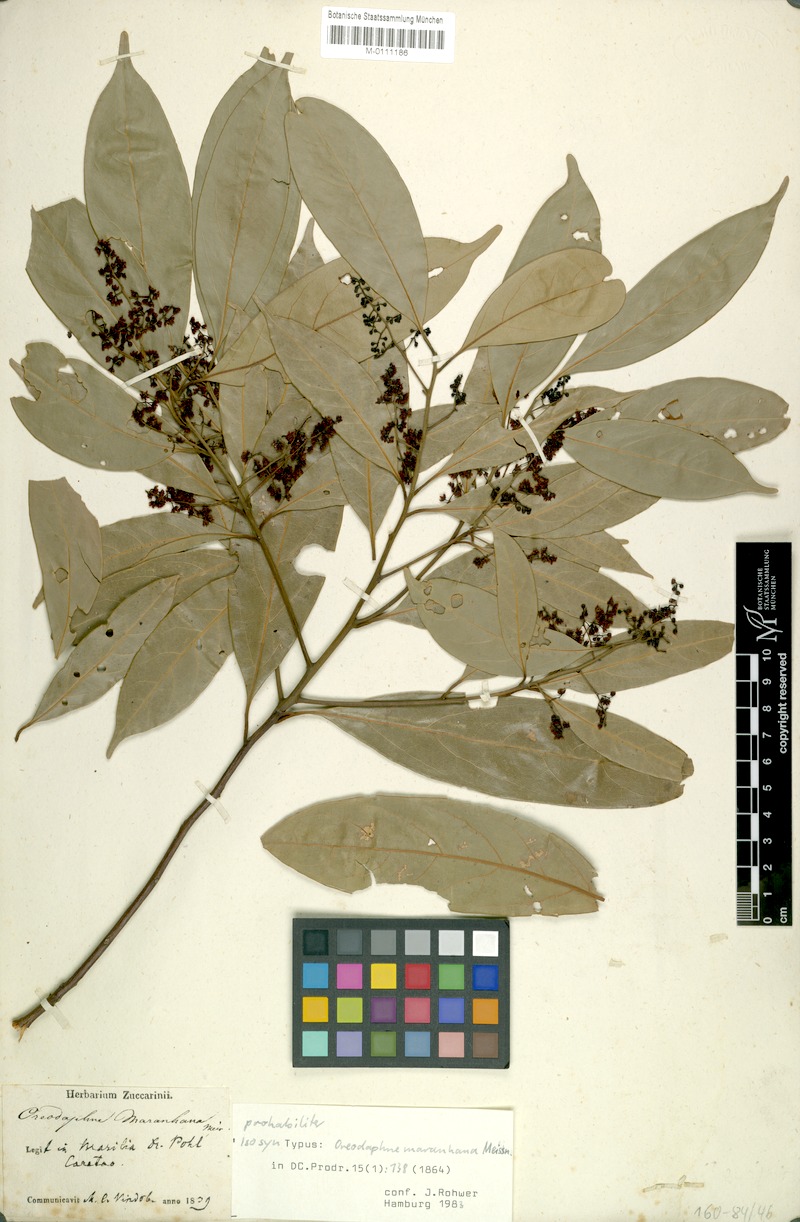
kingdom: Plantae
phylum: Tracheophyta
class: Magnoliopsida
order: Laurales
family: Lauraceae
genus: Ocotea
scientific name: Ocotea spectabilis
